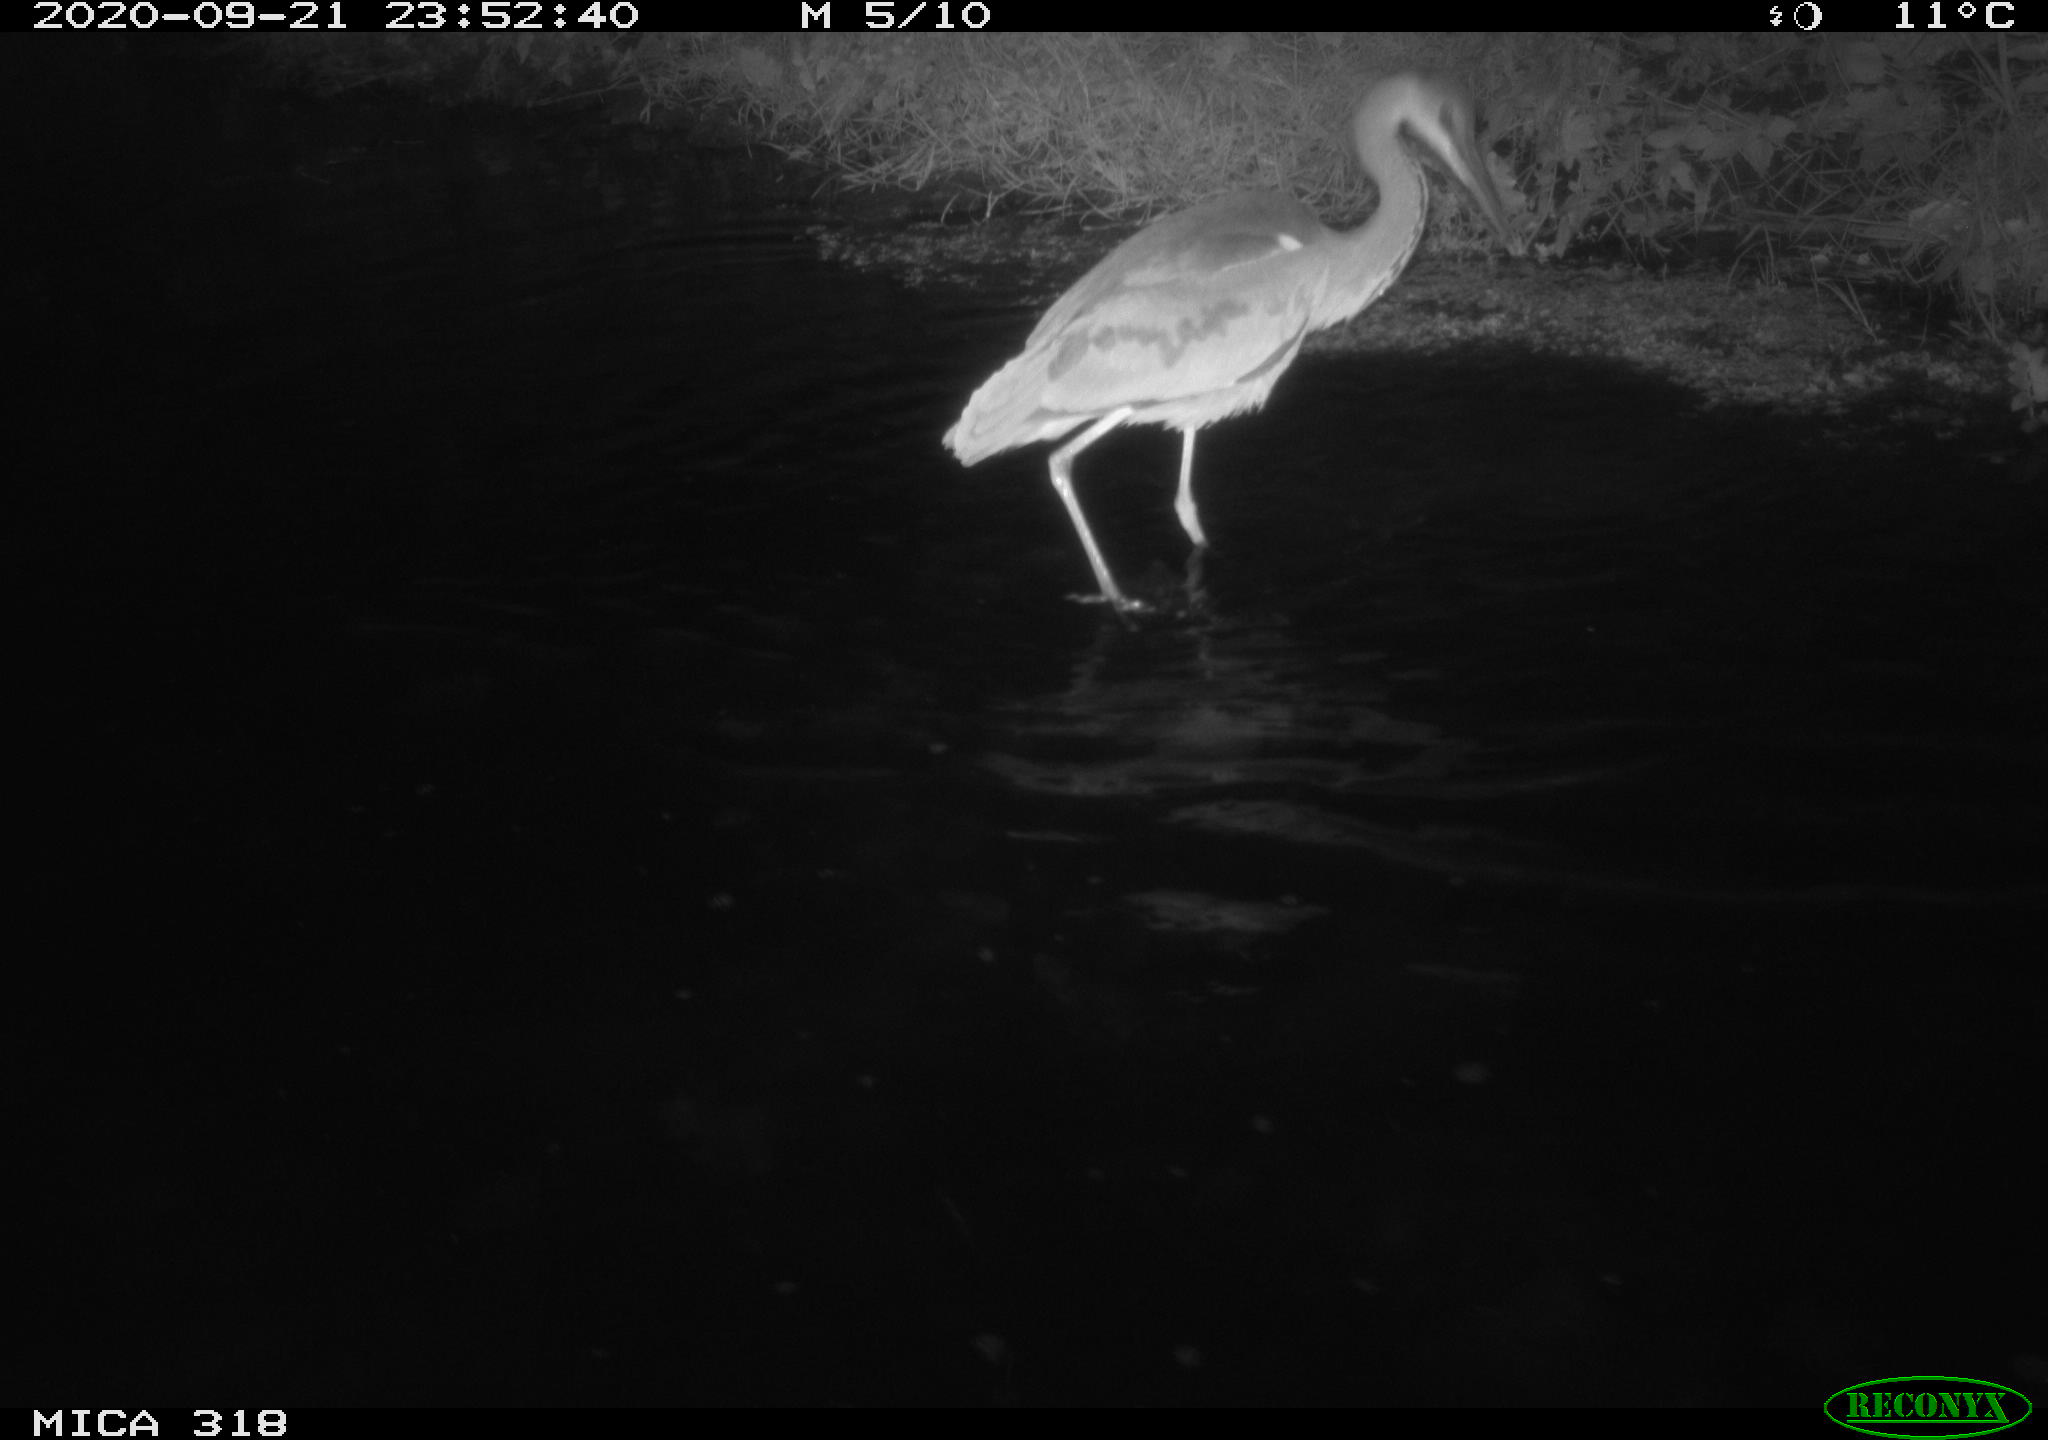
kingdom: Animalia
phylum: Chordata
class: Aves
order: Pelecaniformes
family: Ardeidae
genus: Ardea
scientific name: Ardea
